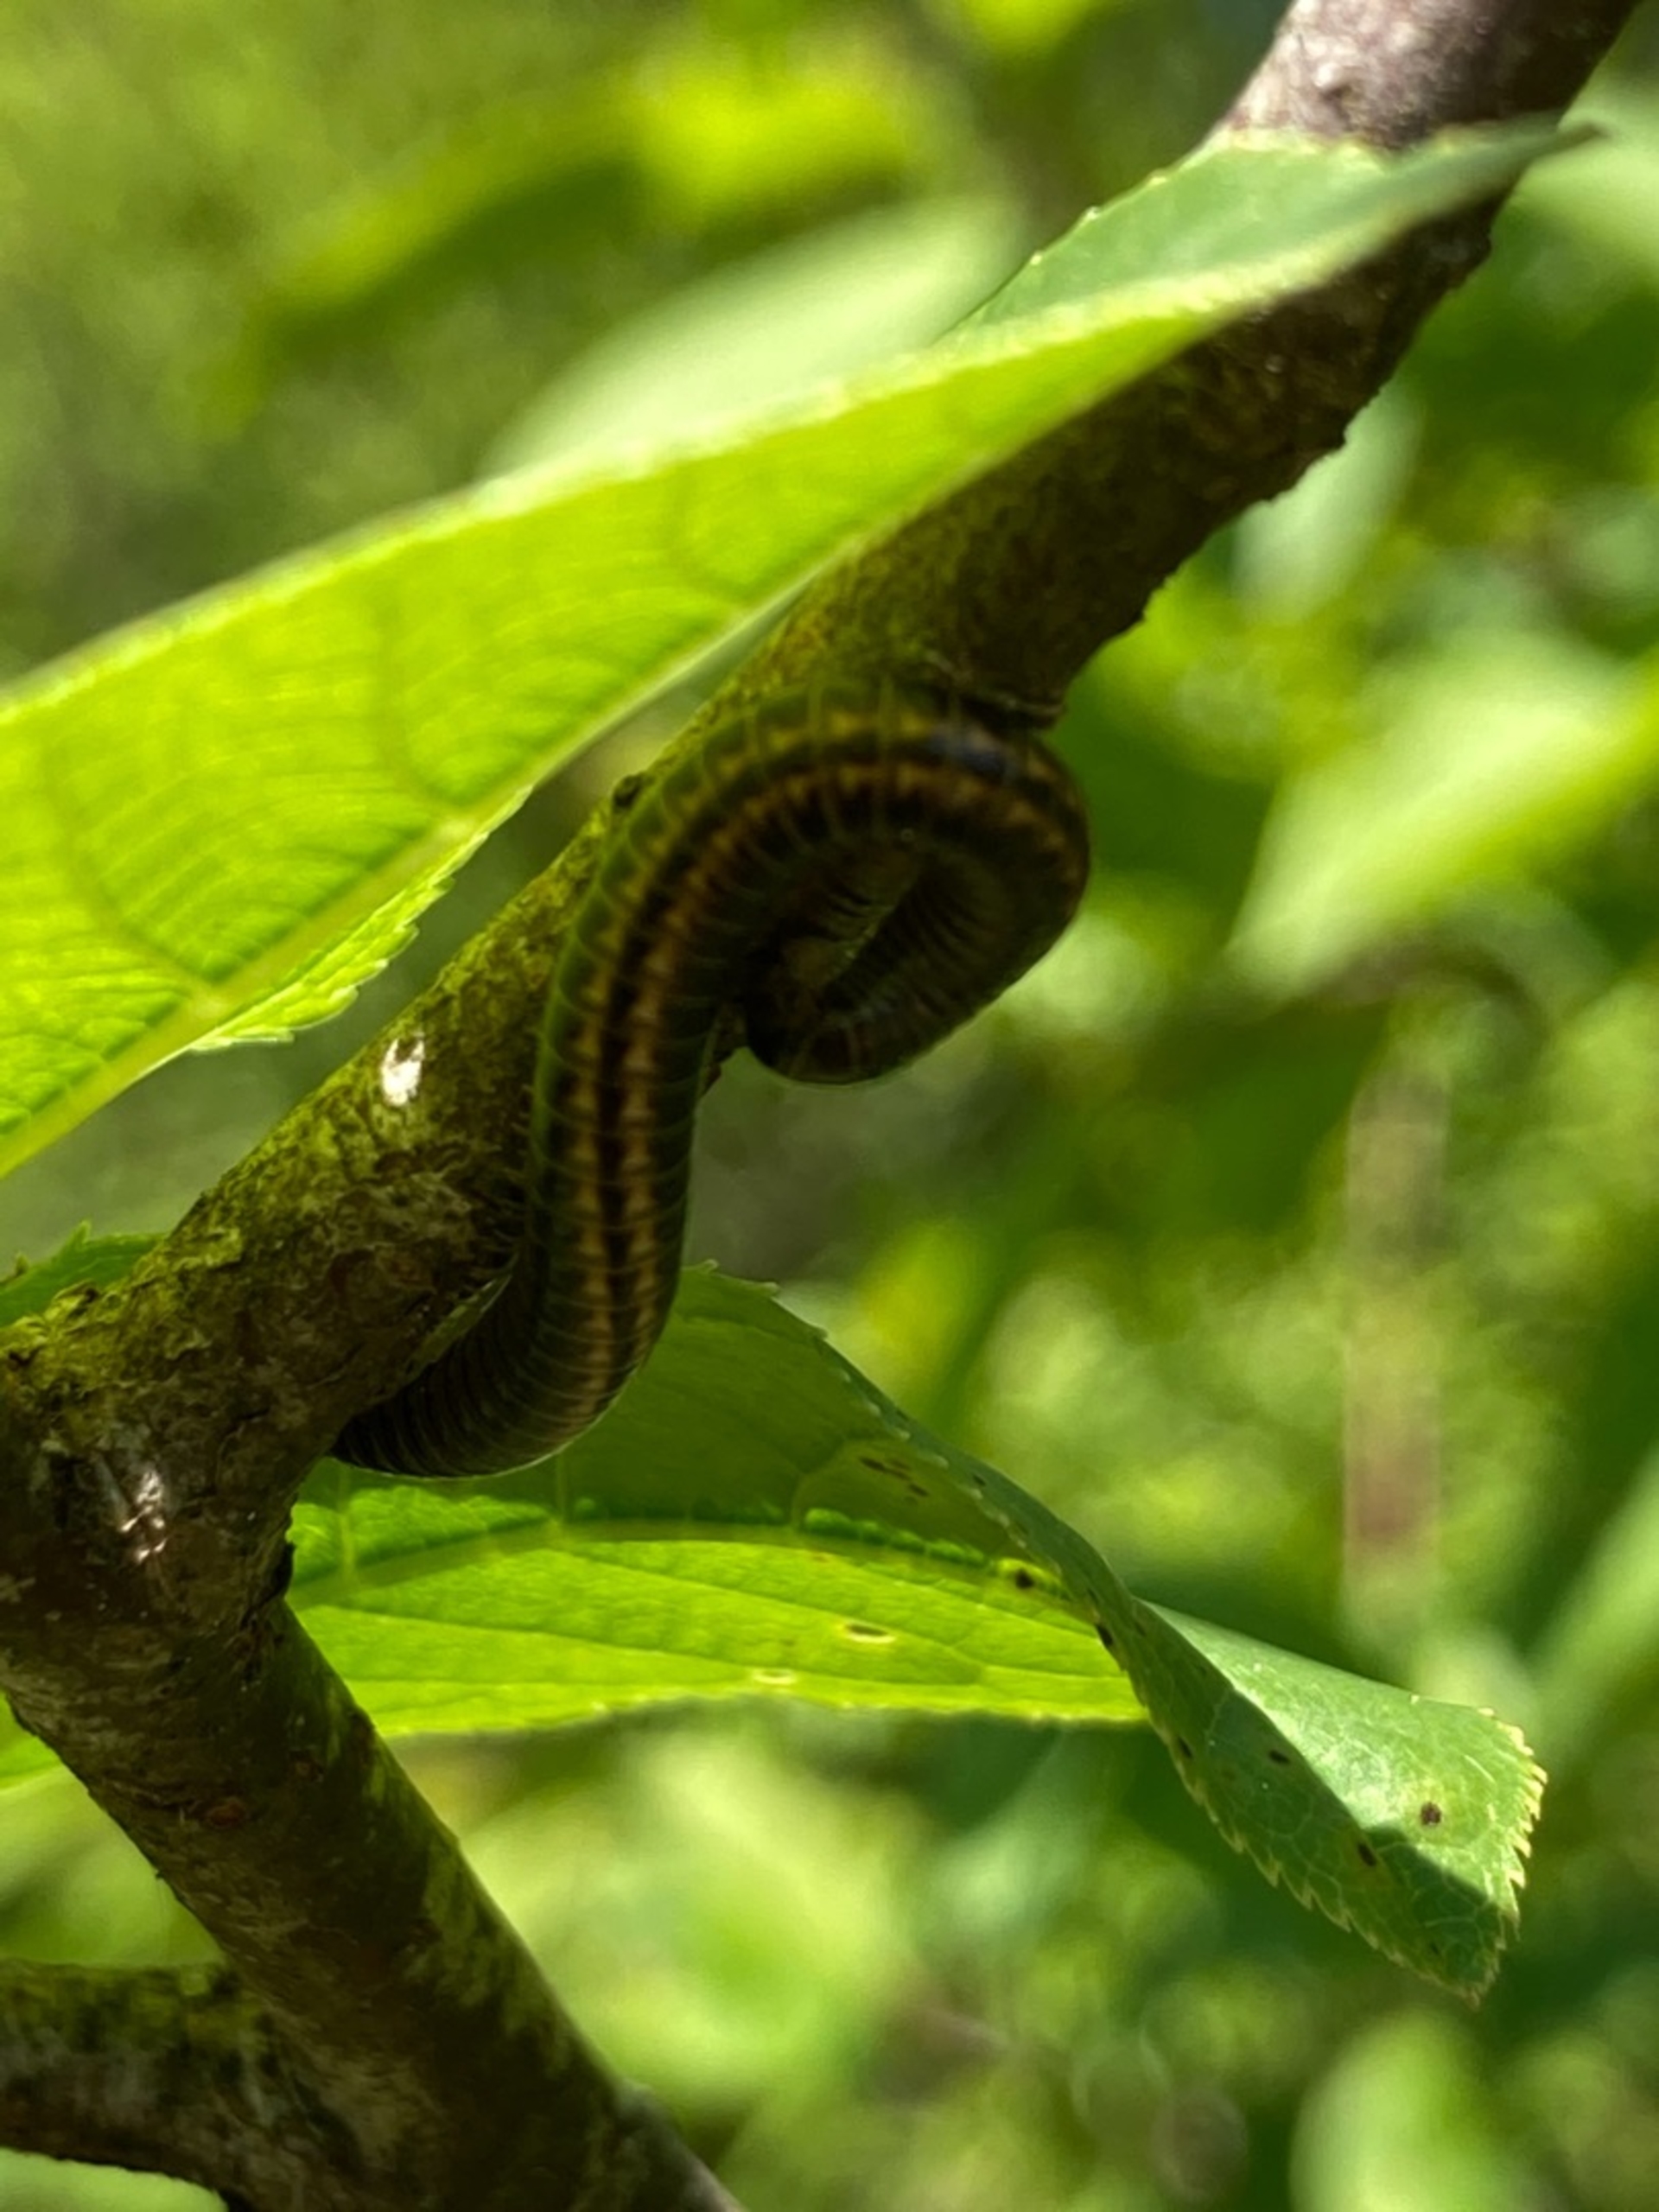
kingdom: Animalia
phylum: Arthropoda
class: Diplopoda
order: Julida
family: Julidae
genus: Ommatoiulus
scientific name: Ommatoiulus sabulosus
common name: Stor bånd-tusindben
